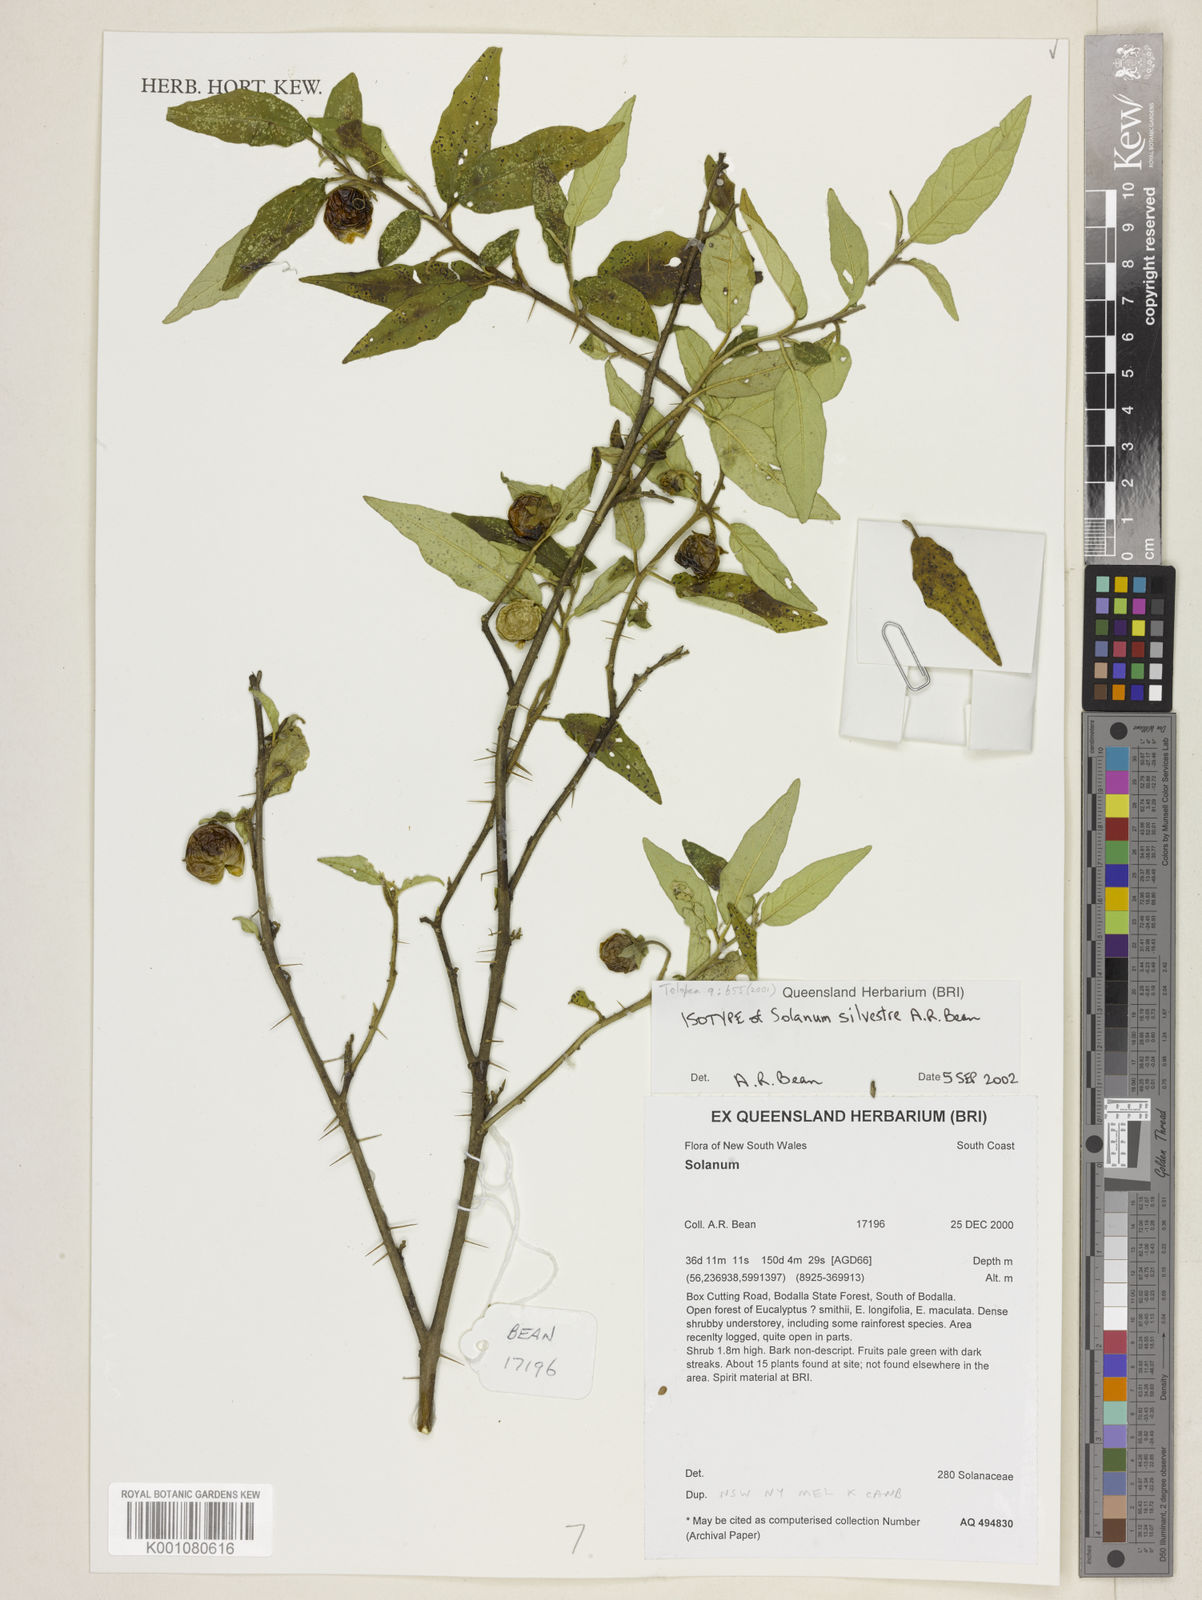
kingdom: Plantae
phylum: Tracheophyta
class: Magnoliopsida
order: Solanales
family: Solanaceae
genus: Solanum
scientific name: Solanum silvestre
